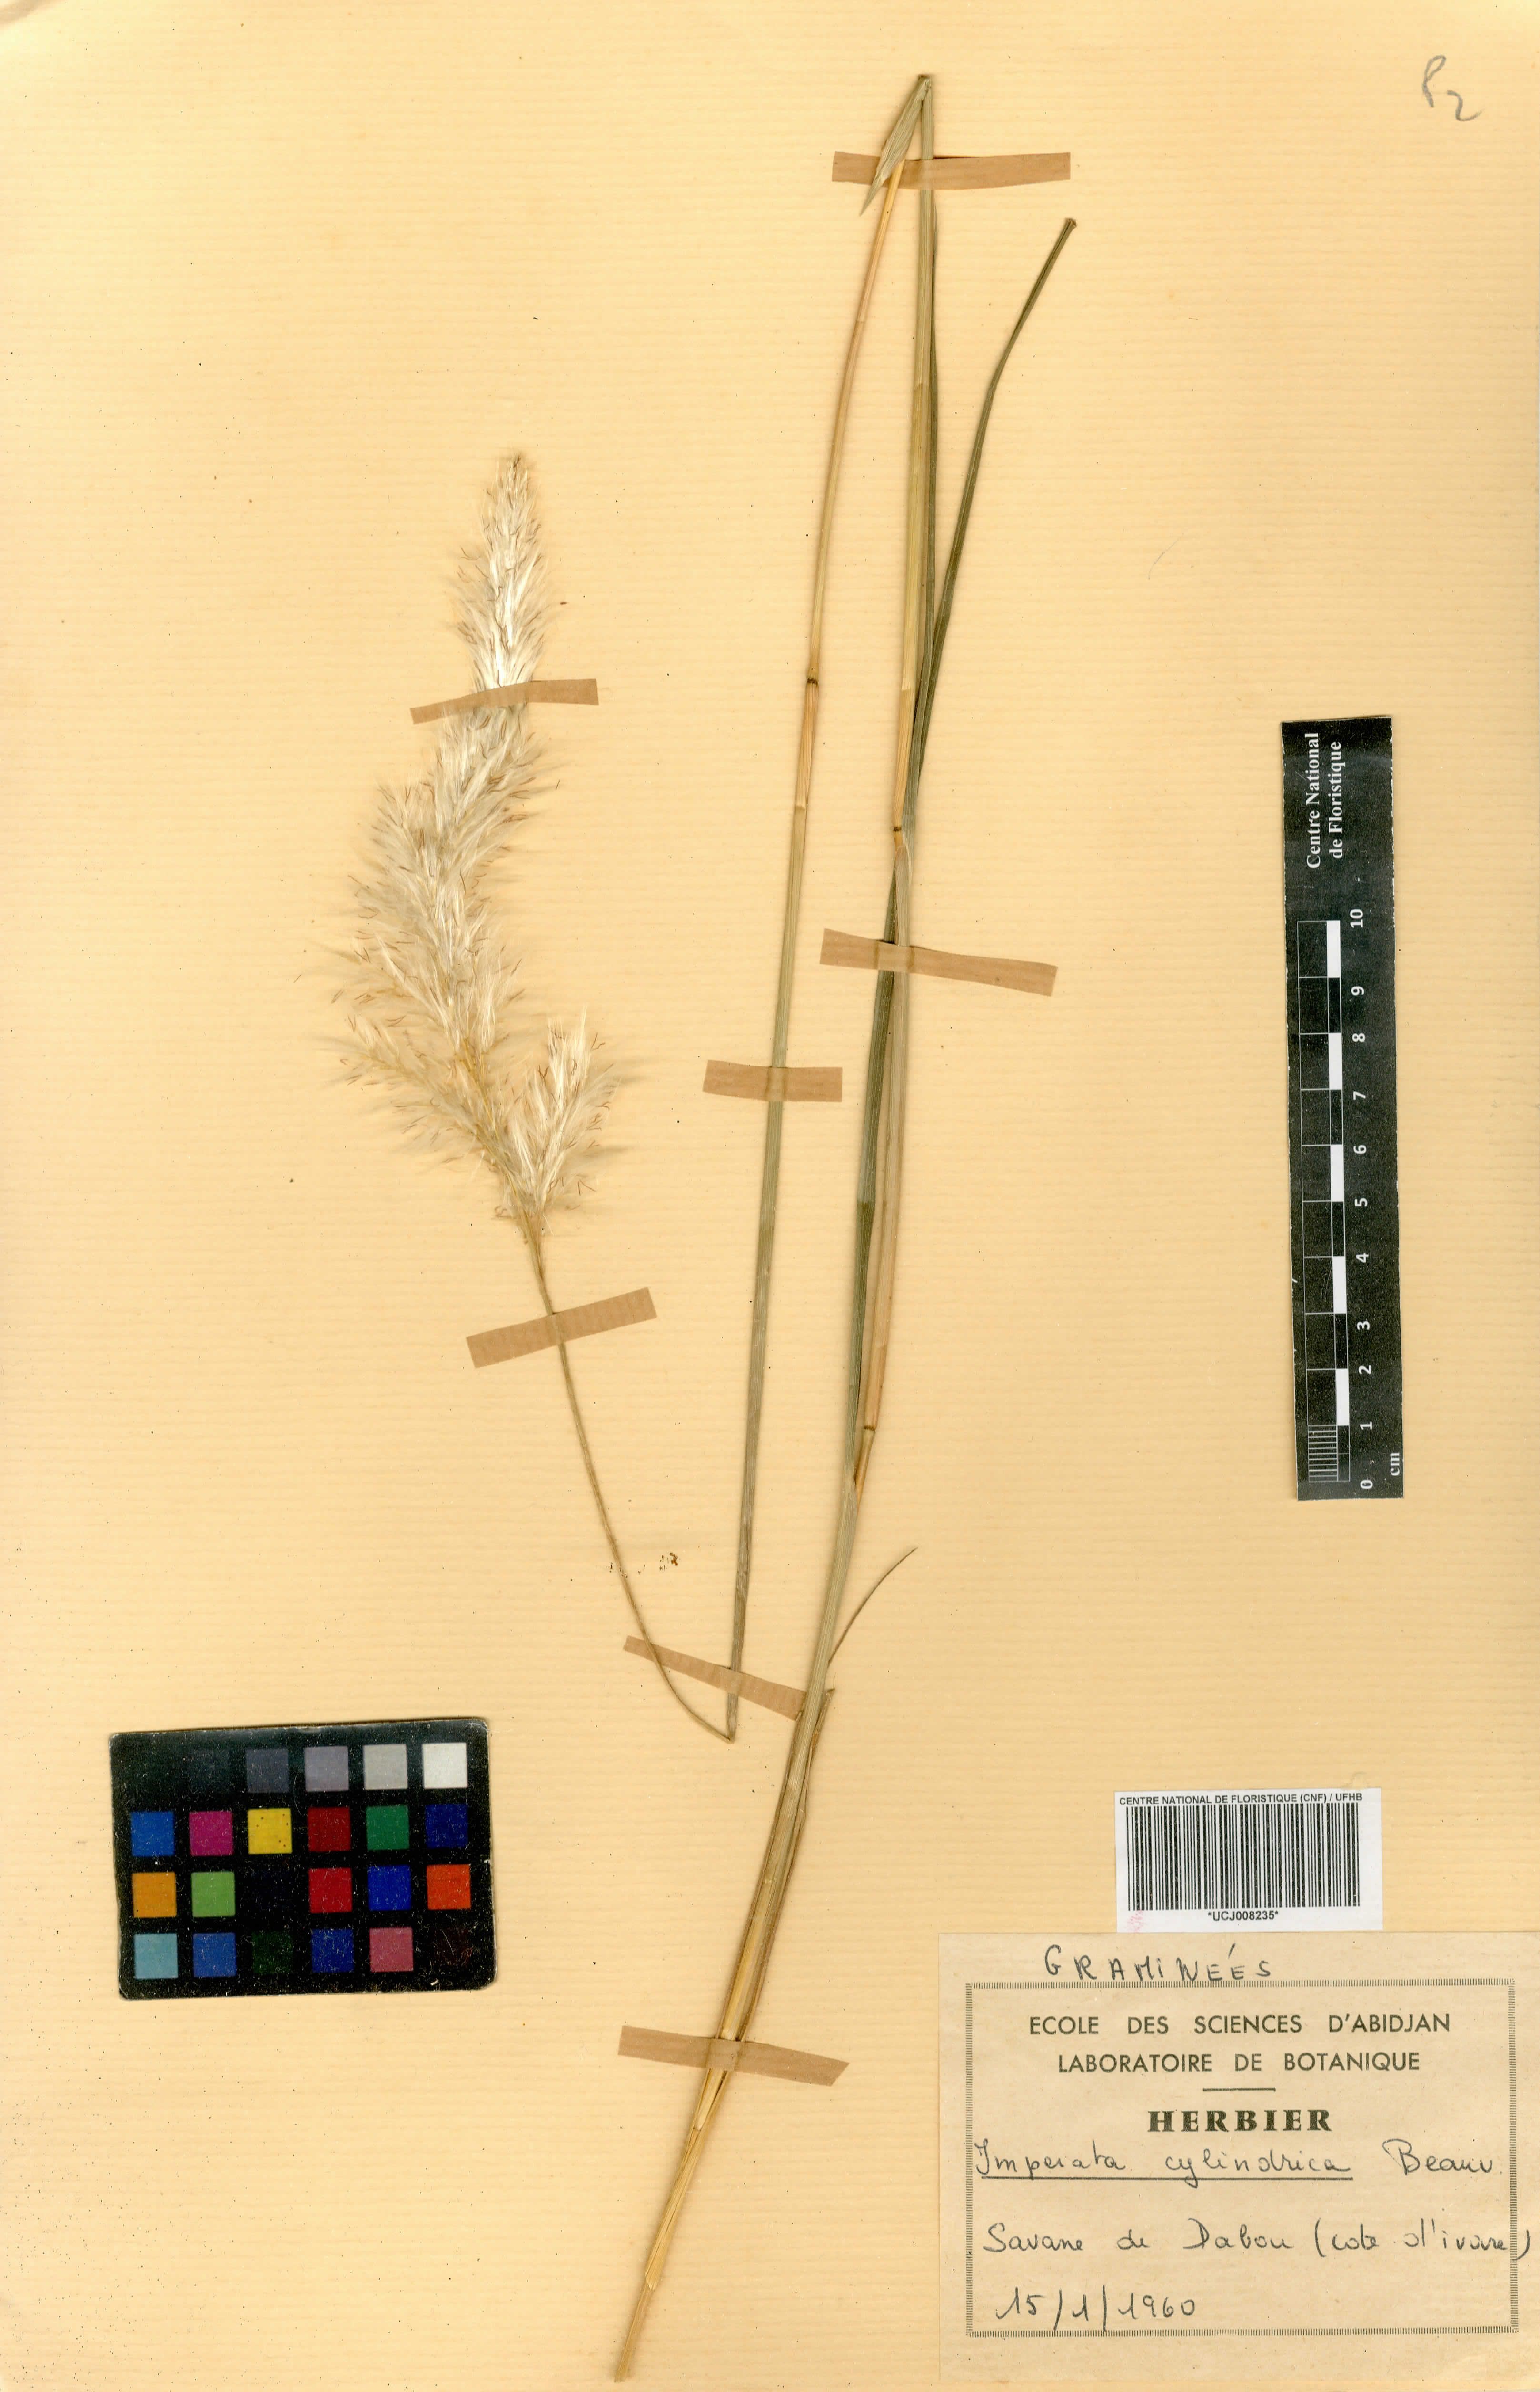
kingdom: Plantae
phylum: Tracheophyta
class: Liliopsida
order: Poales
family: Poaceae
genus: Cenchrus
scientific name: Cenchrus setosus
